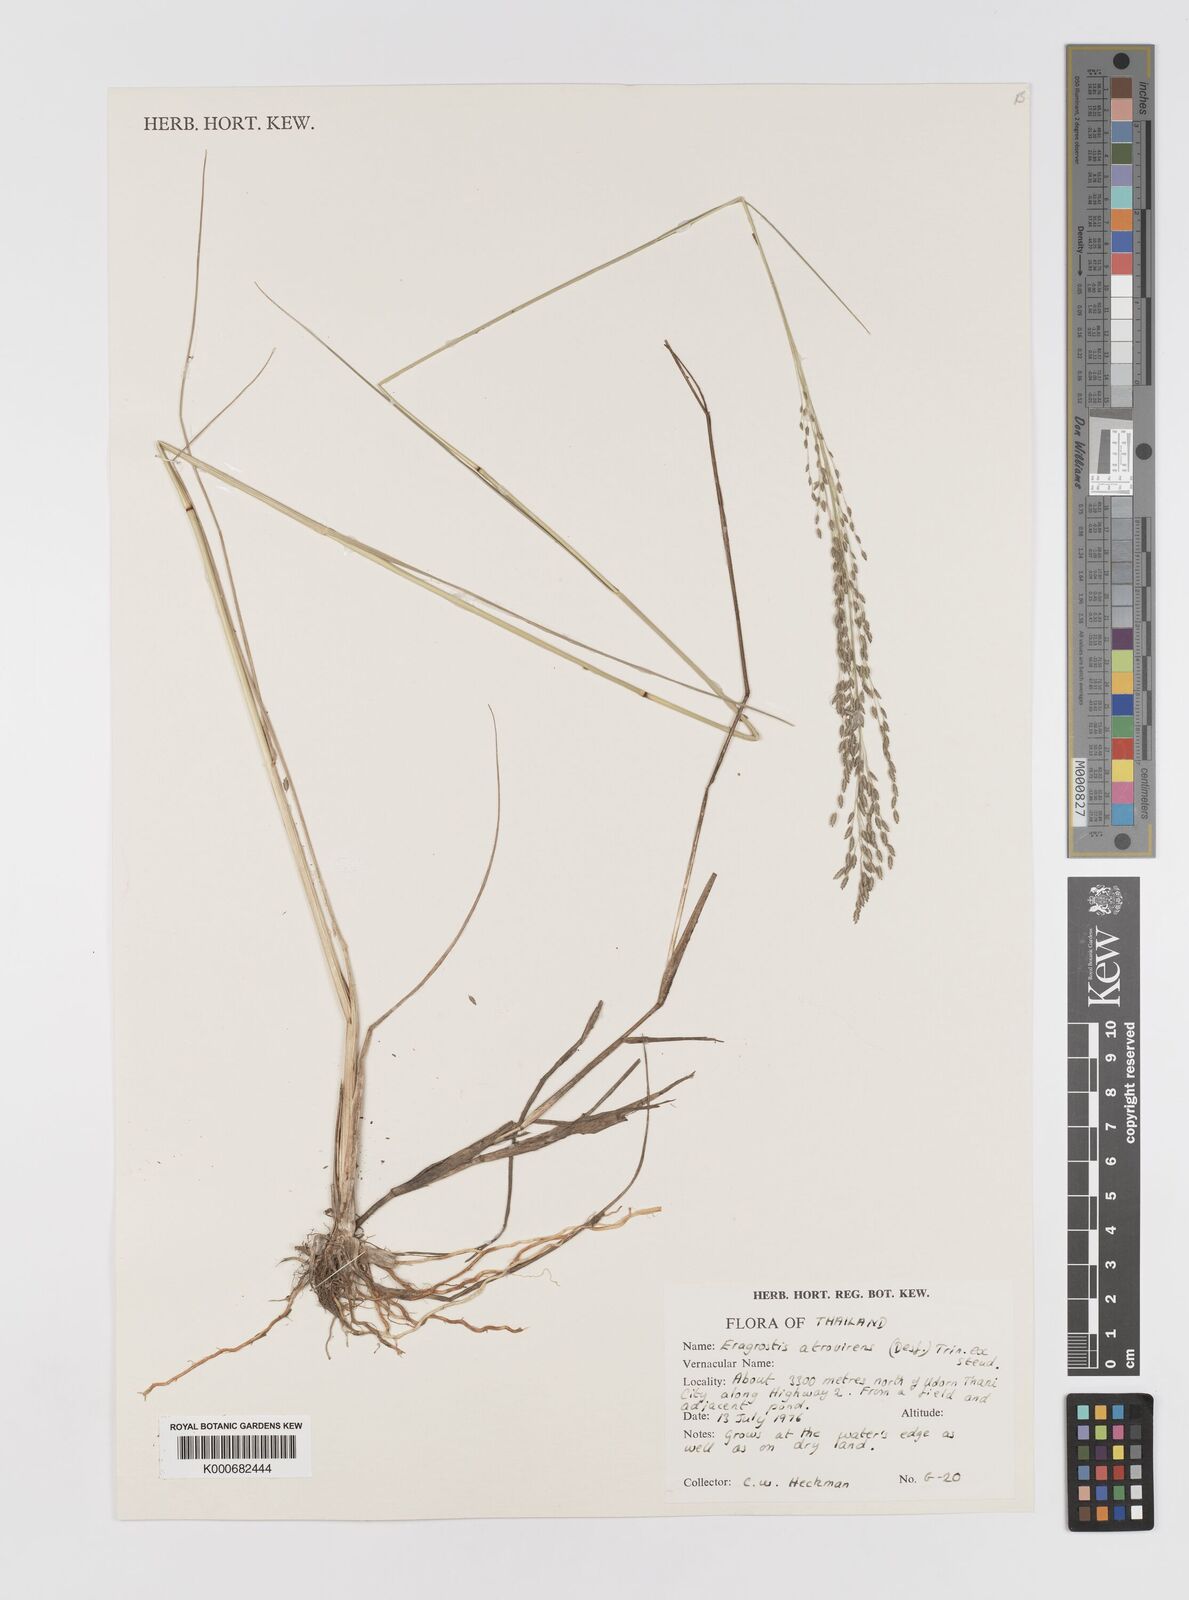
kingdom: Plantae
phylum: Tracheophyta
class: Liliopsida
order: Poales
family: Poaceae
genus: Eragrostis
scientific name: Eragrostis
